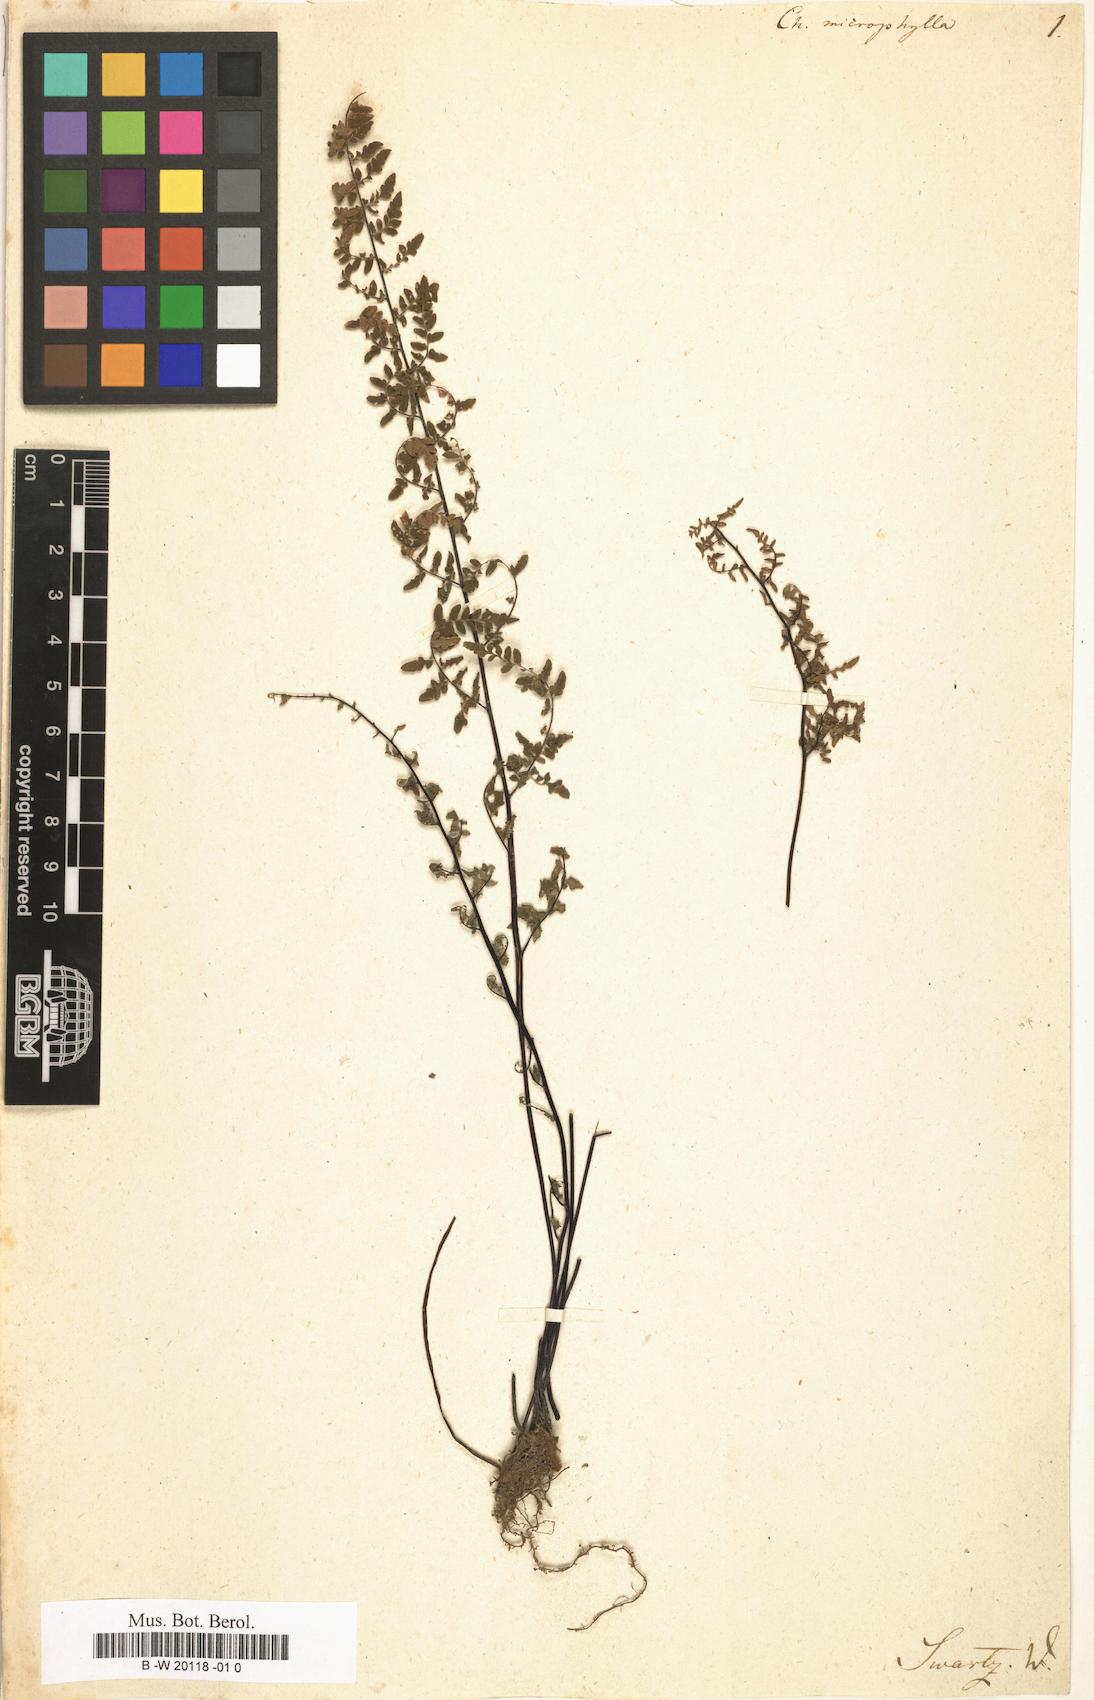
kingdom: Plantae
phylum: Tracheophyta
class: Polypodiopsida
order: Polypodiales
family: Pteridaceae
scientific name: Pteridaceae
